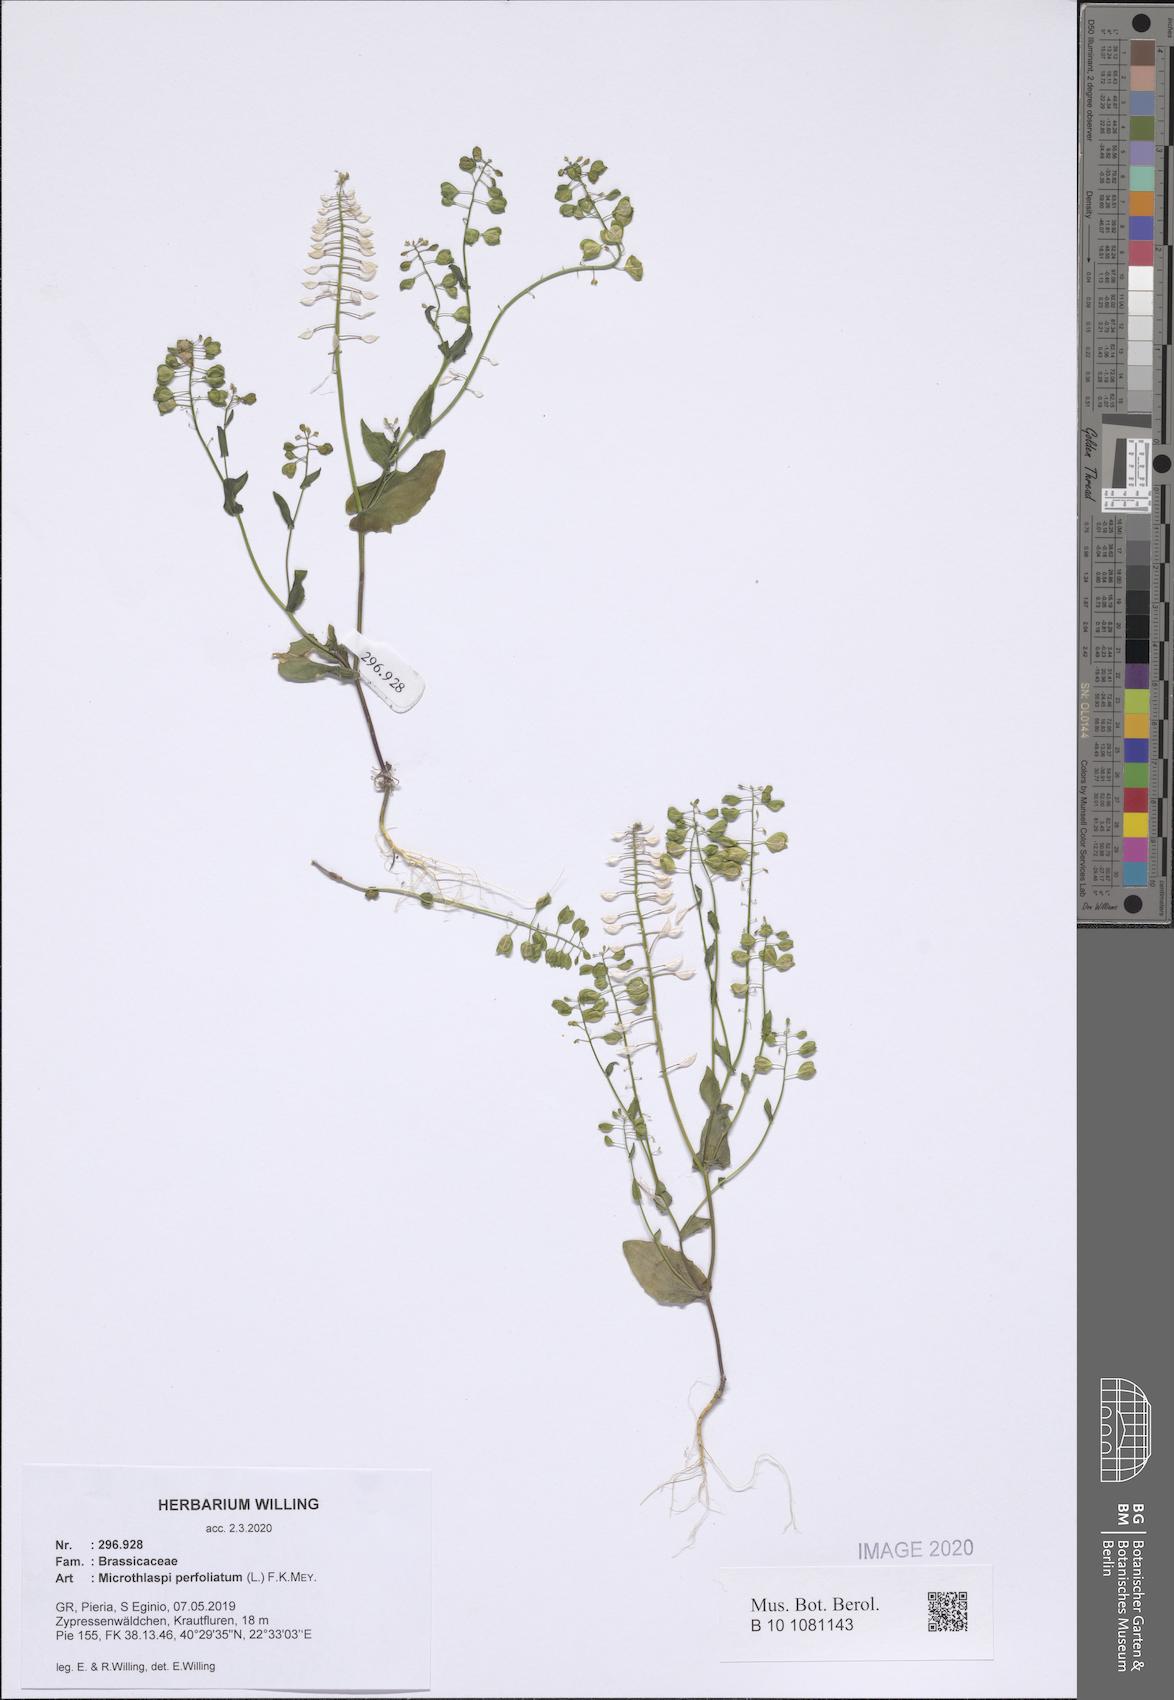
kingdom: Plantae
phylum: Tracheophyta
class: Magnoliopsida
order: Brassicales
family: Brassicaceae
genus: Noccaea
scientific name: Noccaea perfoliata
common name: Perfoliate pennycress
